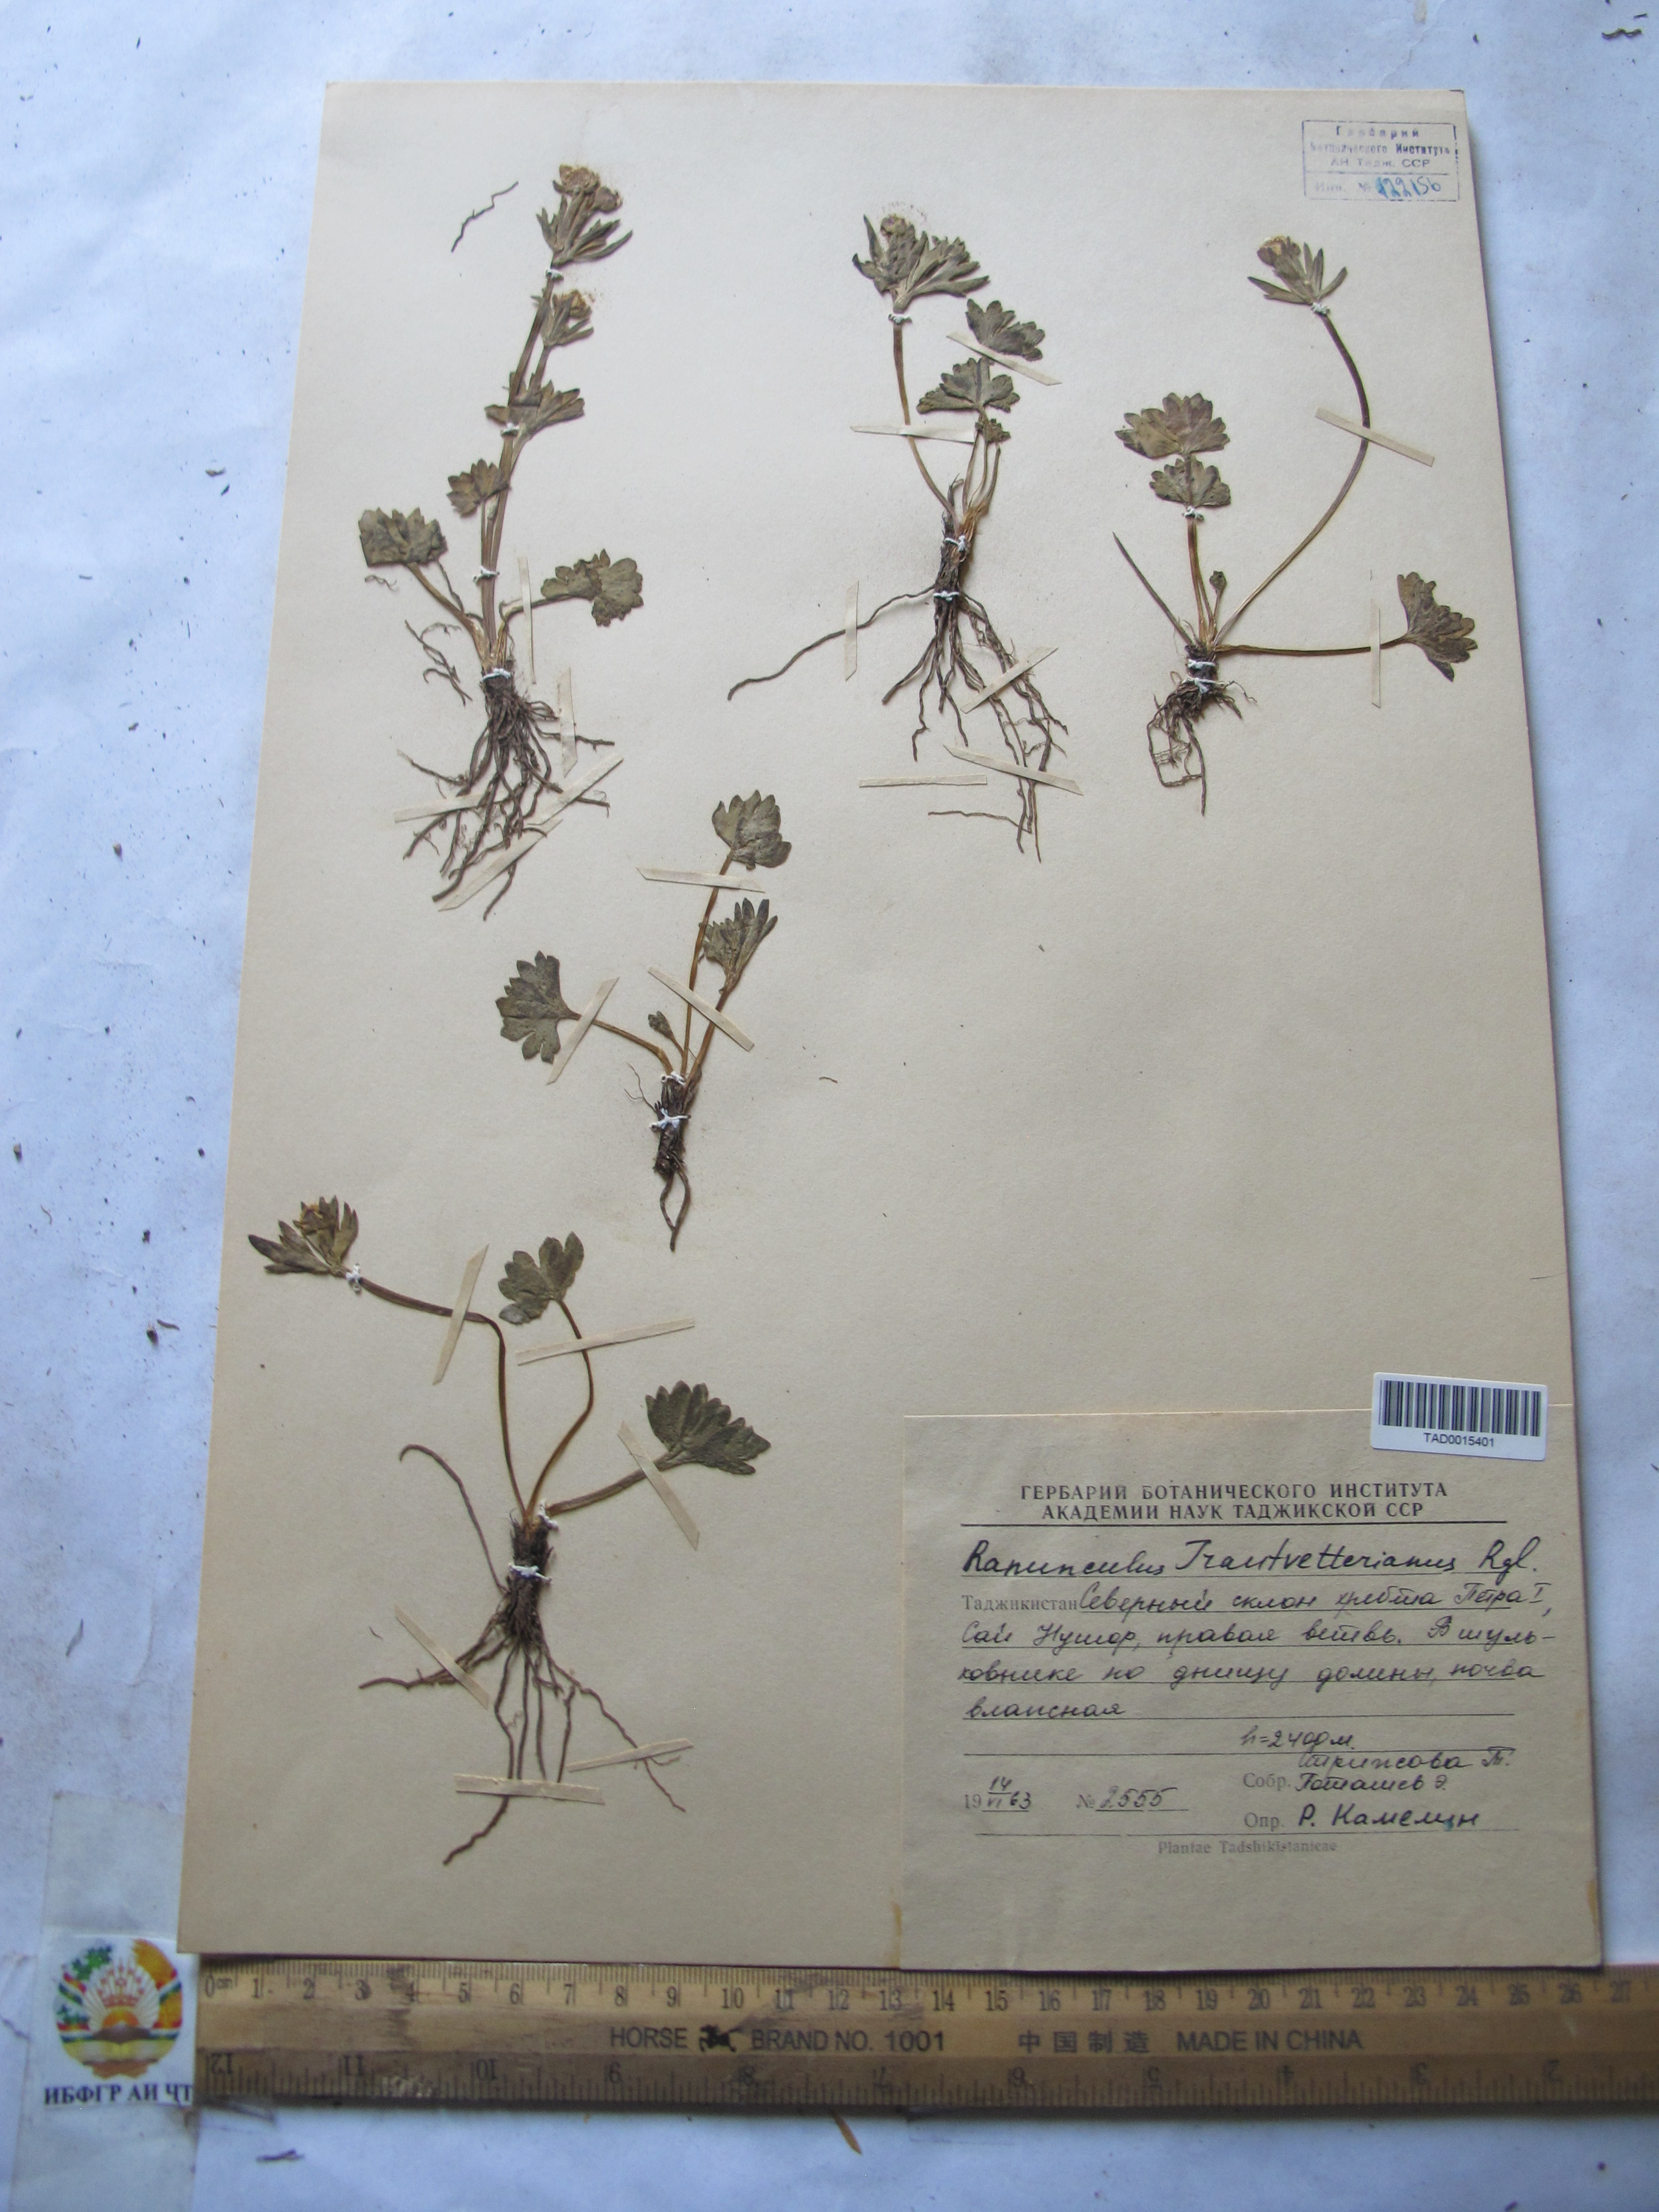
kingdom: Plantae
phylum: Tracheophyta
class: Magnoliopsida
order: Ranunculales
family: Ranunculaceae
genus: Ranunculus
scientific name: Ranunculus songaricus
